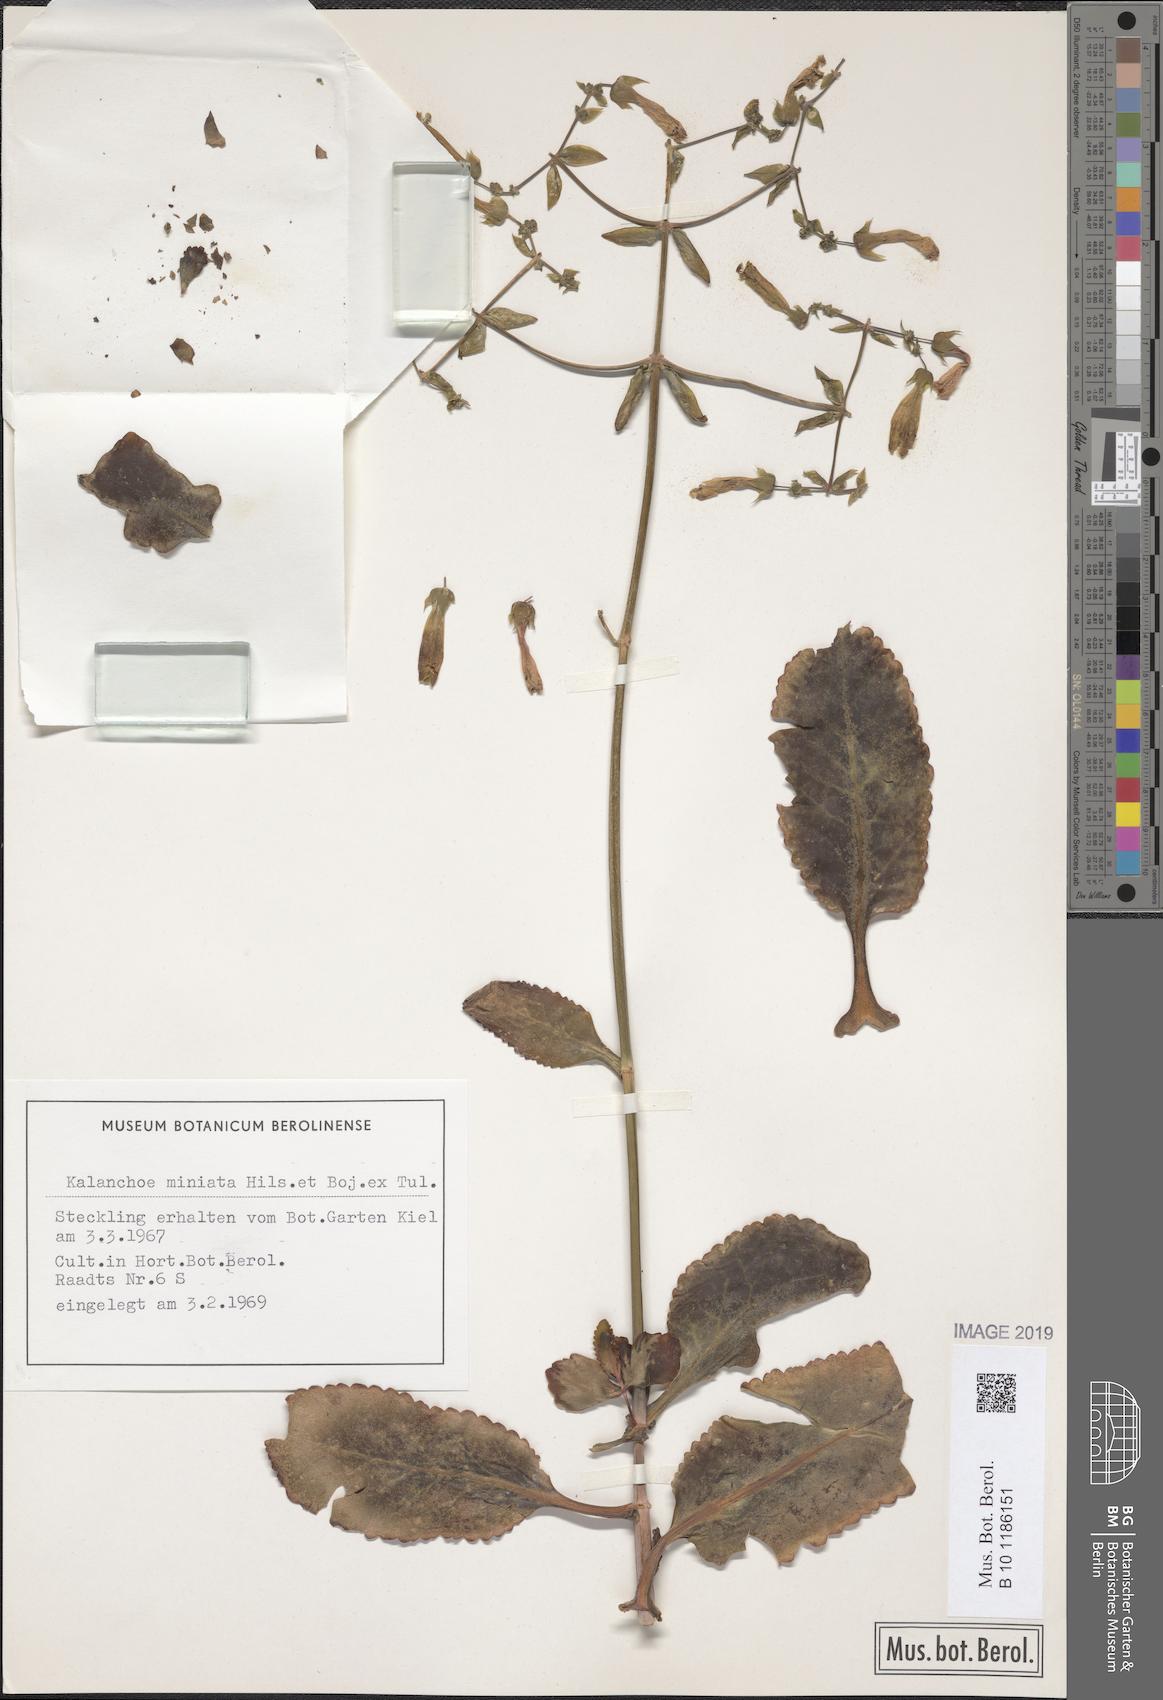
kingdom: Plantae
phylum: Tracheophyta
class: Magnoliopsida
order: Saxifragales
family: Crassulaceae
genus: Kalanchoe
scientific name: Kalanchoe miniata
